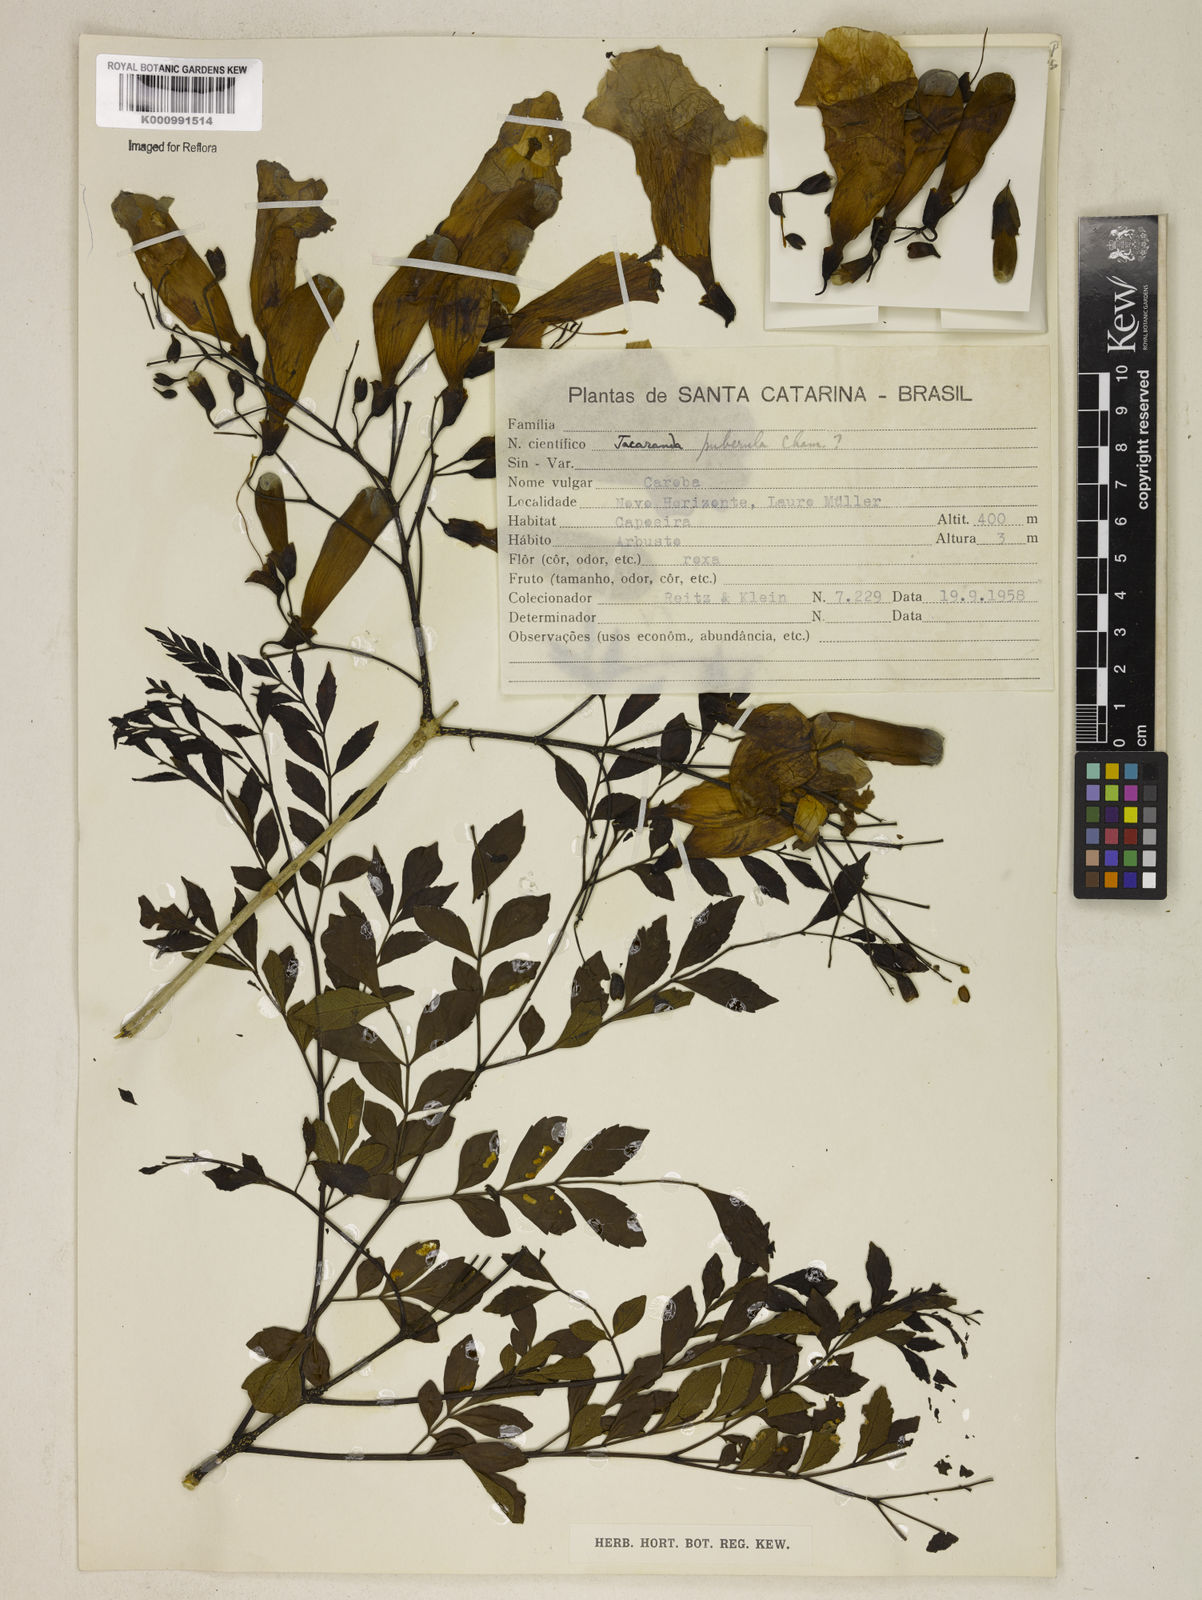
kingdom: Plantae
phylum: Tracheophyta
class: Magnoliopsida
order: Lamiales
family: Bignoniaceae
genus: Jacaranda
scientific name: Jacaranda puberula
